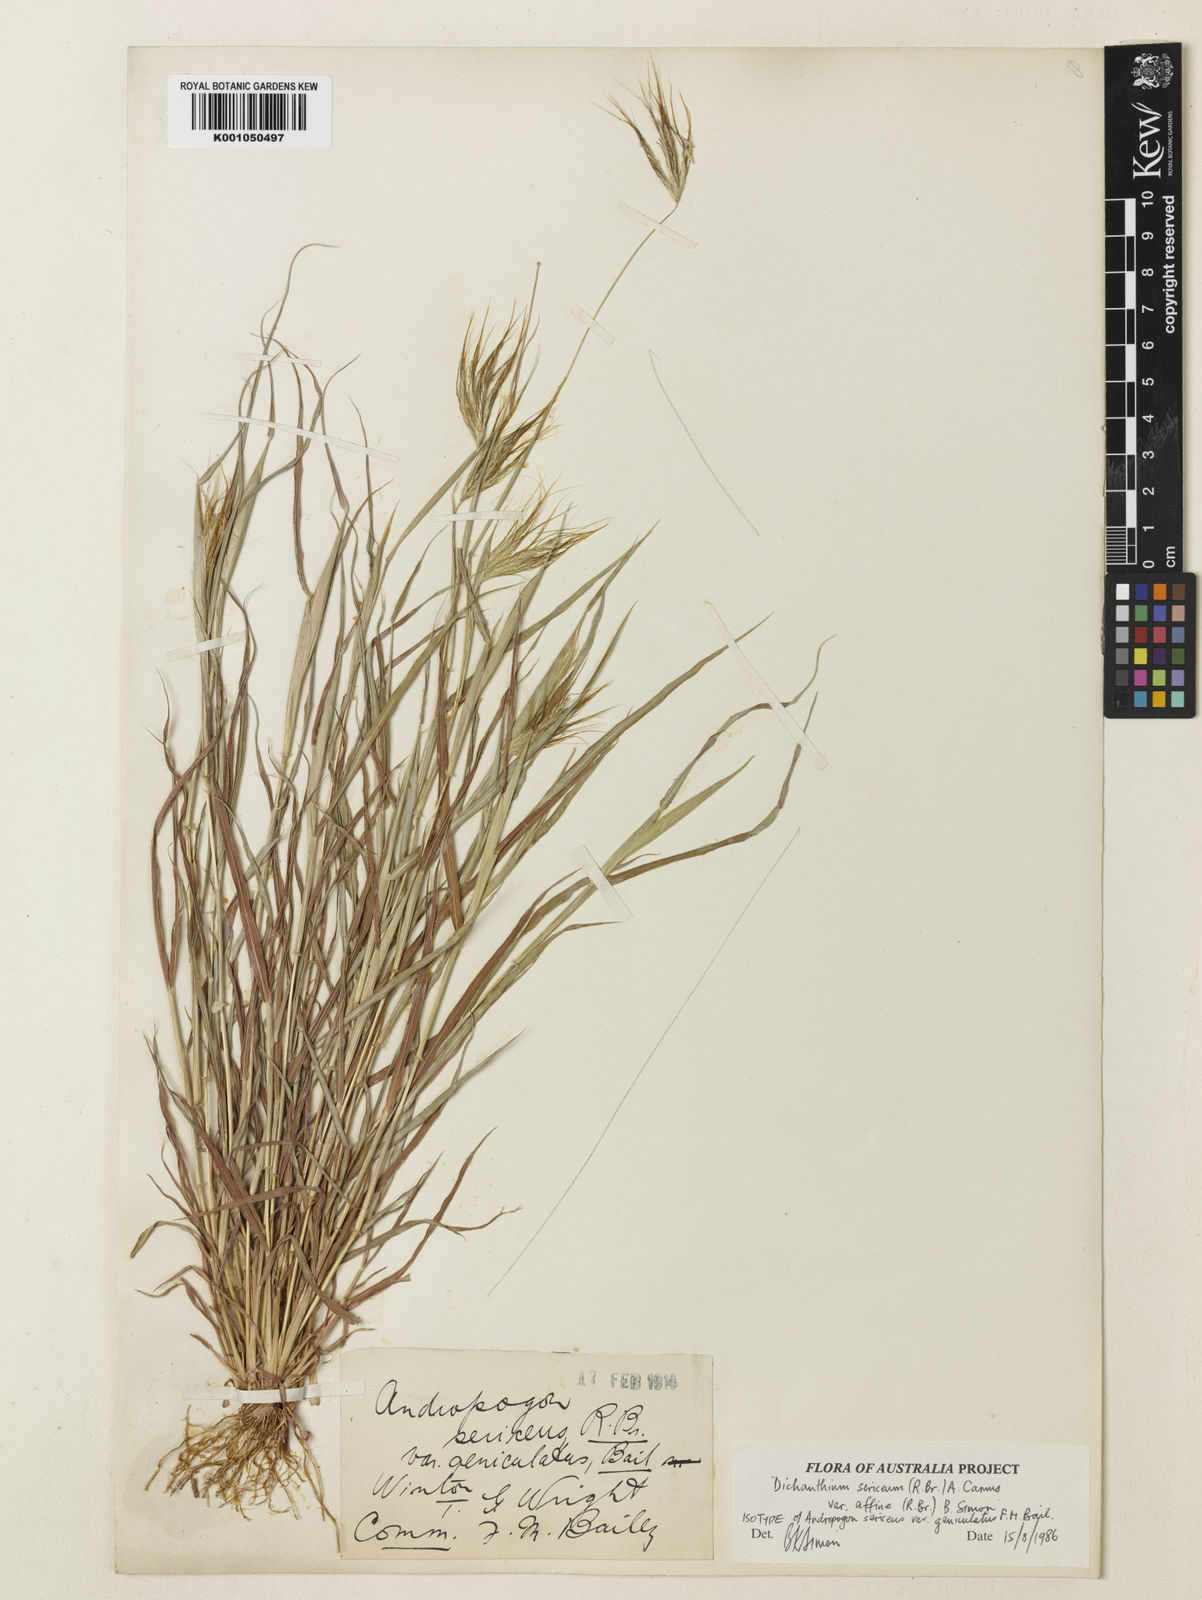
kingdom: Plantae
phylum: Tracheophyta
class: Liliopsida
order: Poales
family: Poaceae
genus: Dichanthium
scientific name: Dichanthium sericeum
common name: Silky bluestem
